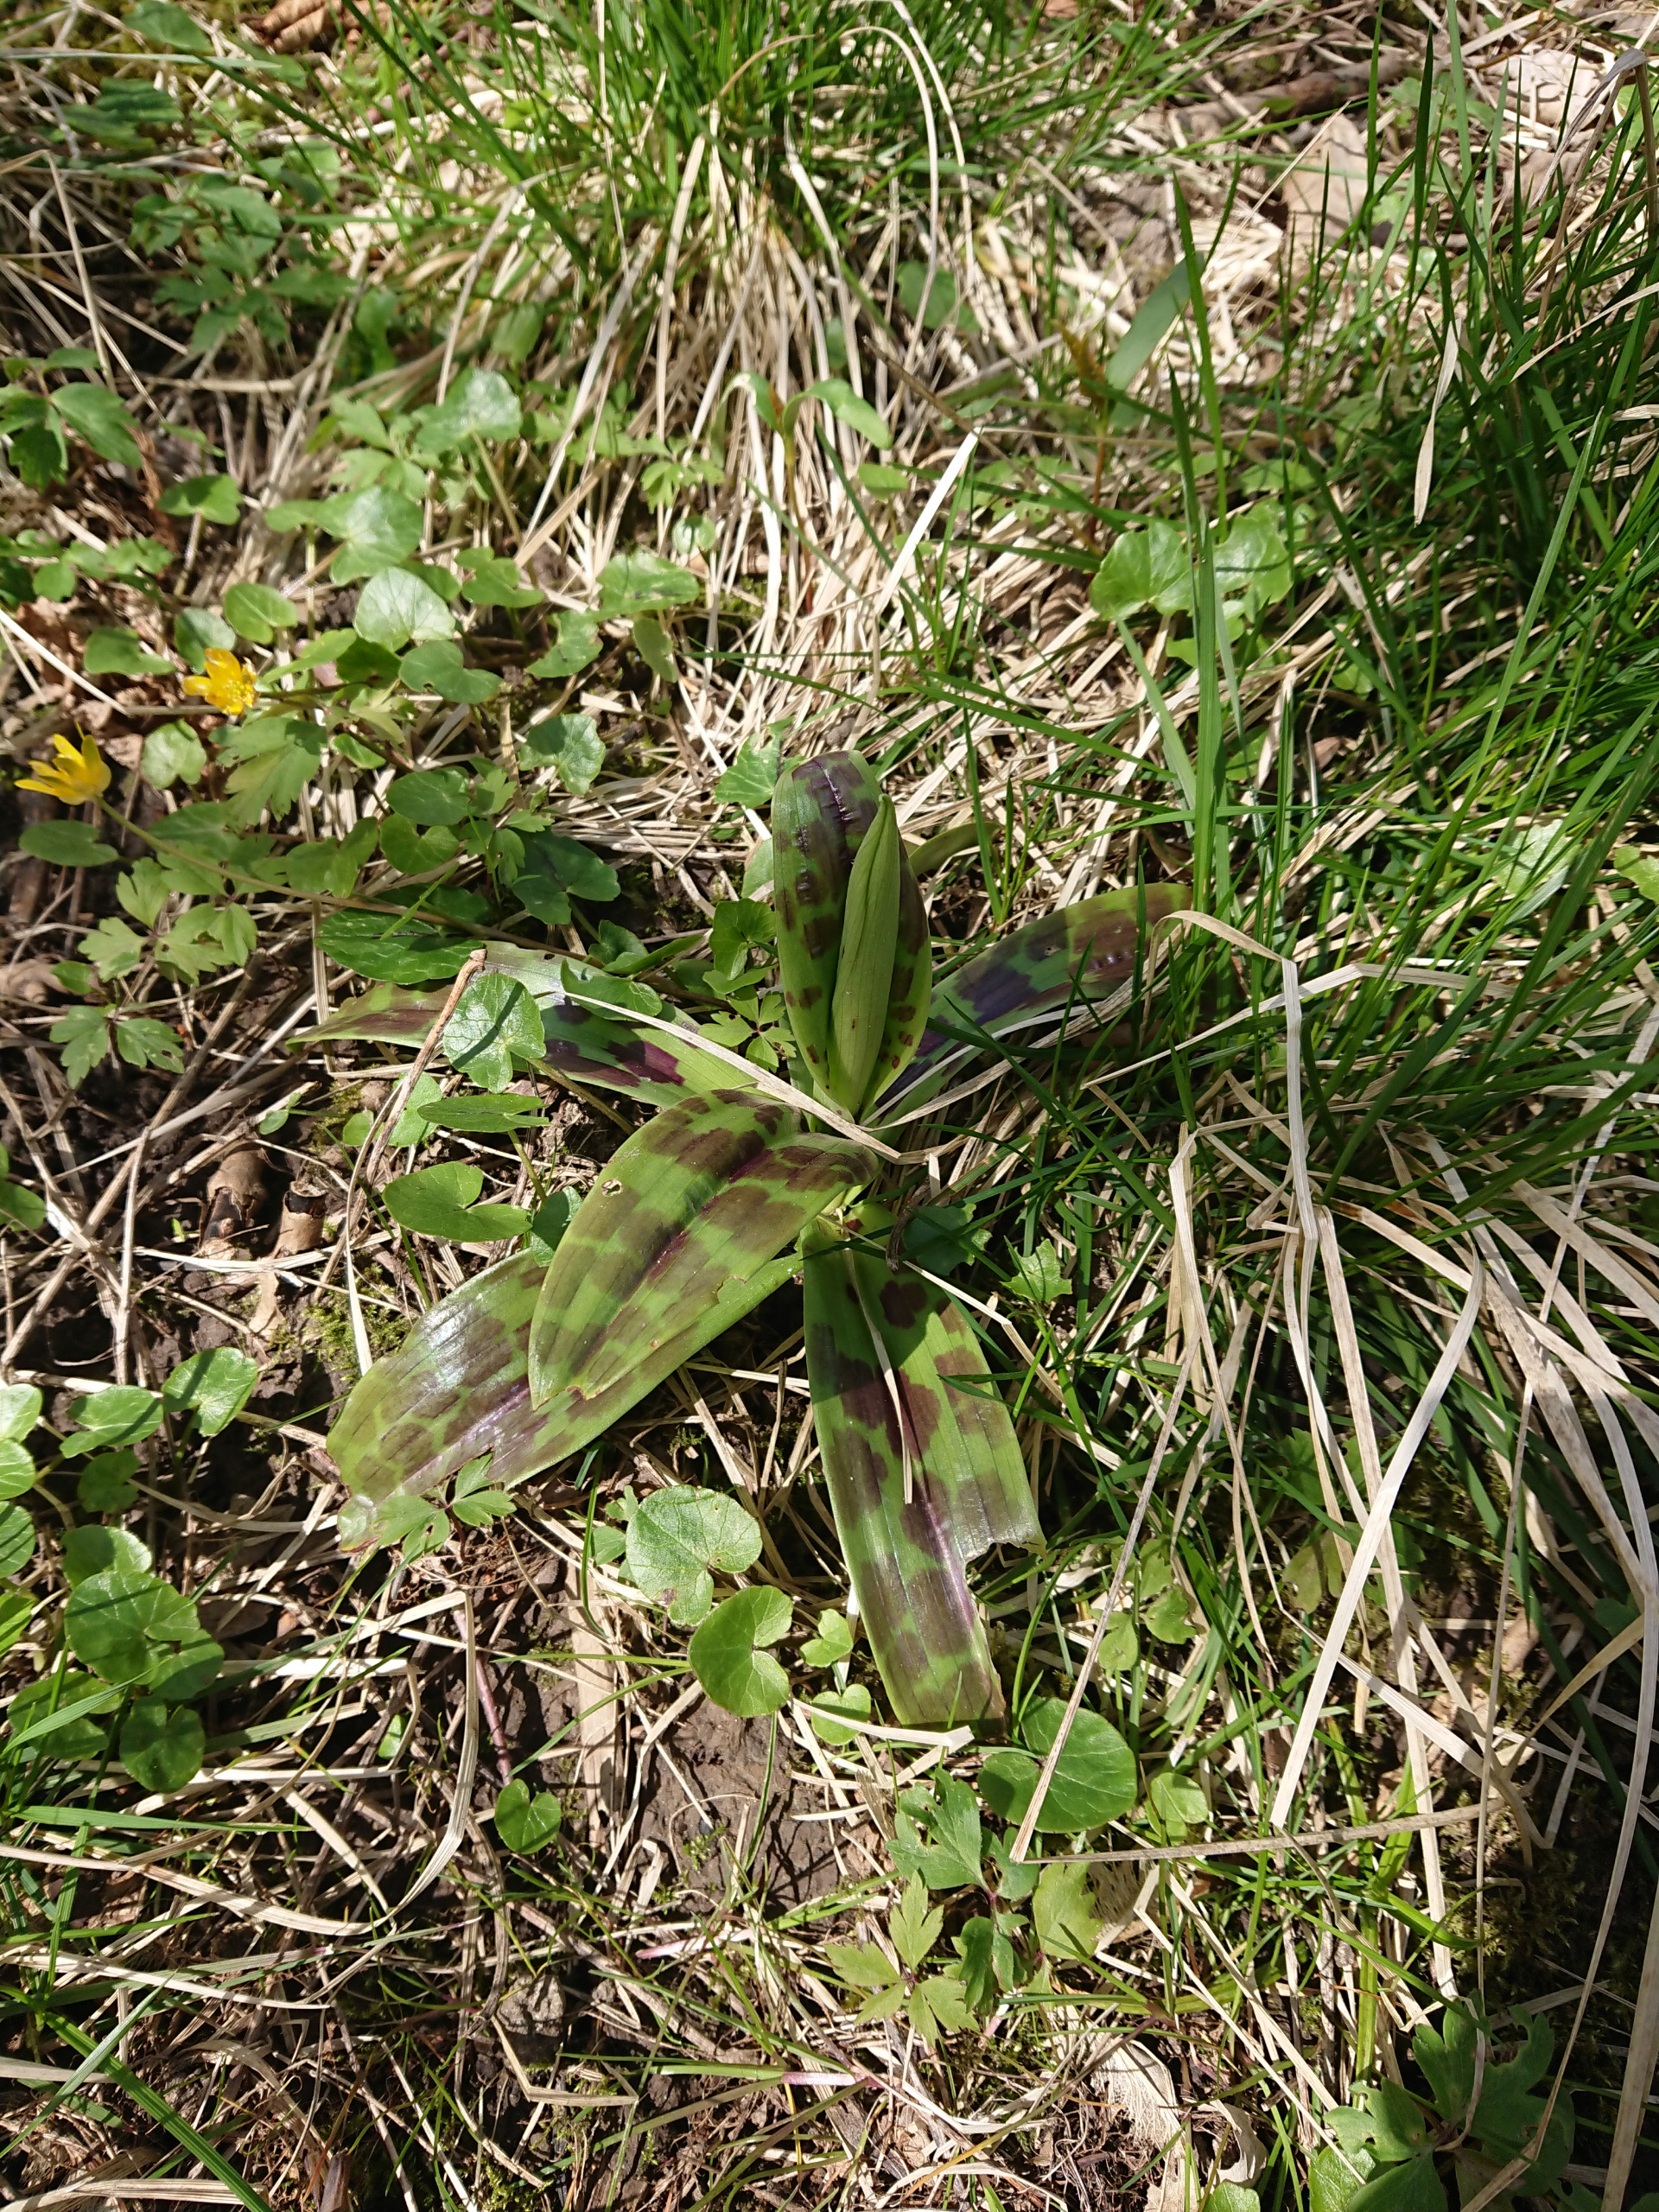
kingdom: Plantae
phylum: Tracheophyta
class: Liliopsida
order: Asparagales
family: Orchidaceae
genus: Orchis
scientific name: Orchis mascula
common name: Tyndakset gøgeurt
